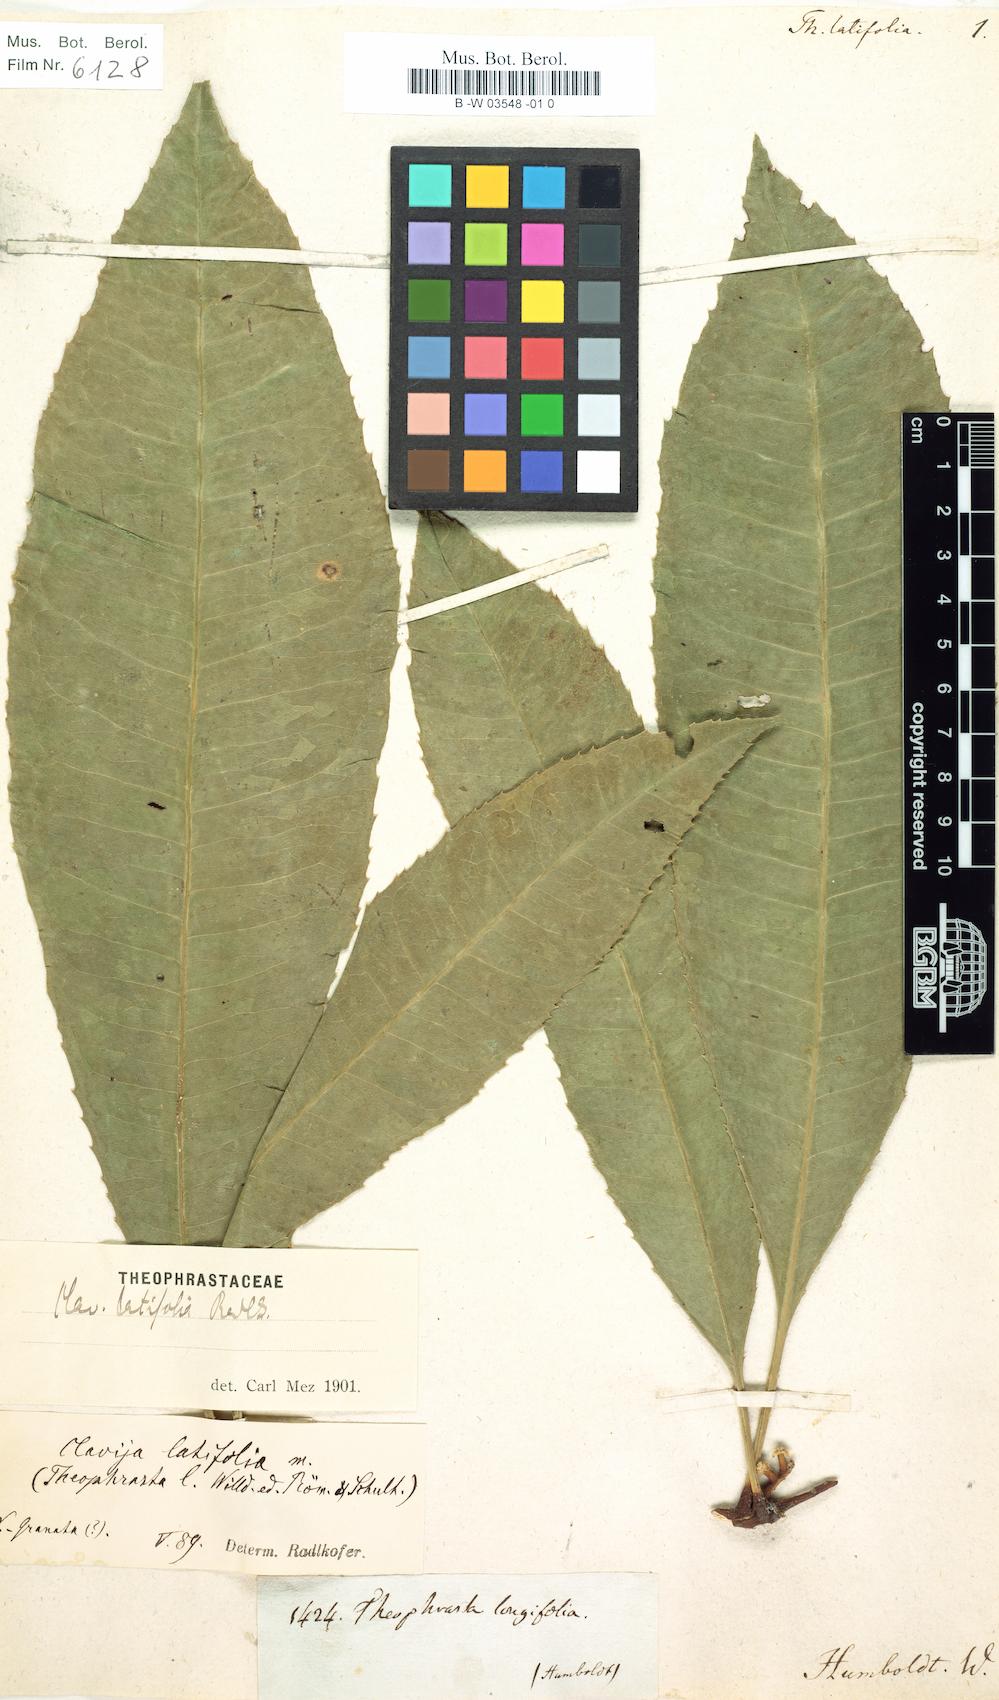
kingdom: Plantae
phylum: Tracheophyta
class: Magnoliopsida
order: Ericales
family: Primulaceae
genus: Clavija
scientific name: Clavija latifolia
